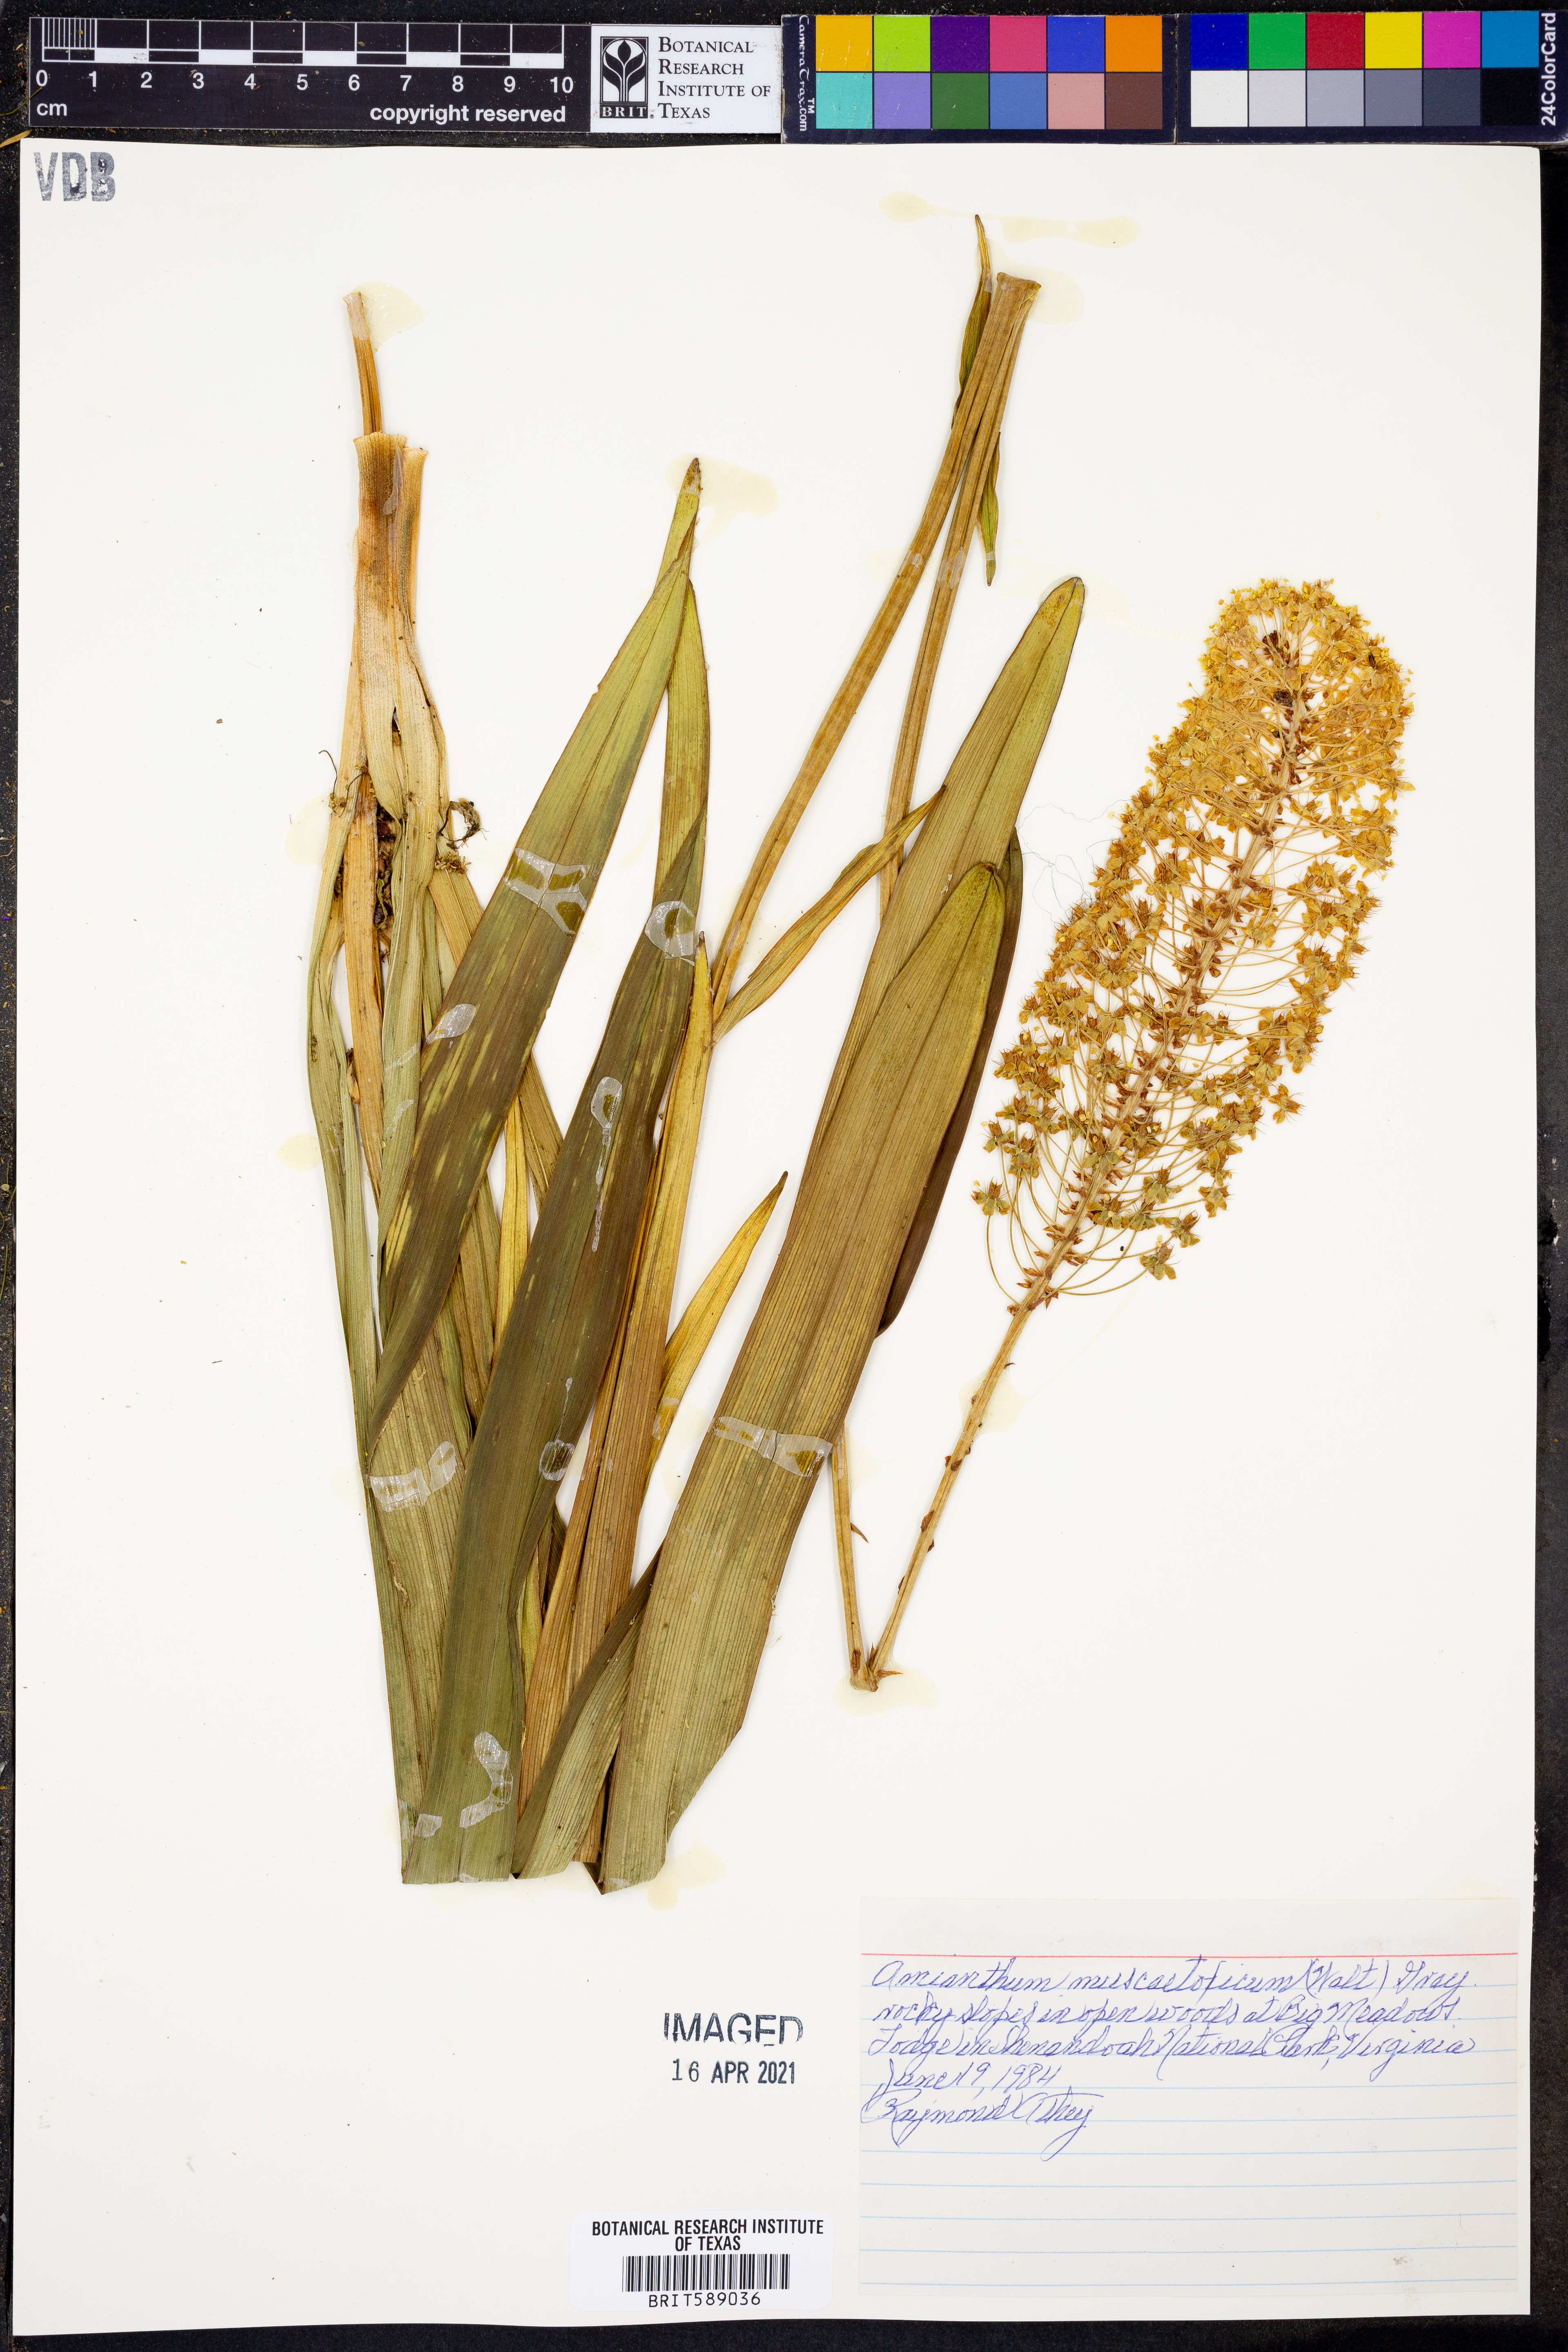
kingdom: Plantae
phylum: Tracheophyta
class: Liliopsida
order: Liliales
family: Melanthiaceae
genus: Amianthium
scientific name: Amianthium muscitoxicum
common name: Fly-poison
